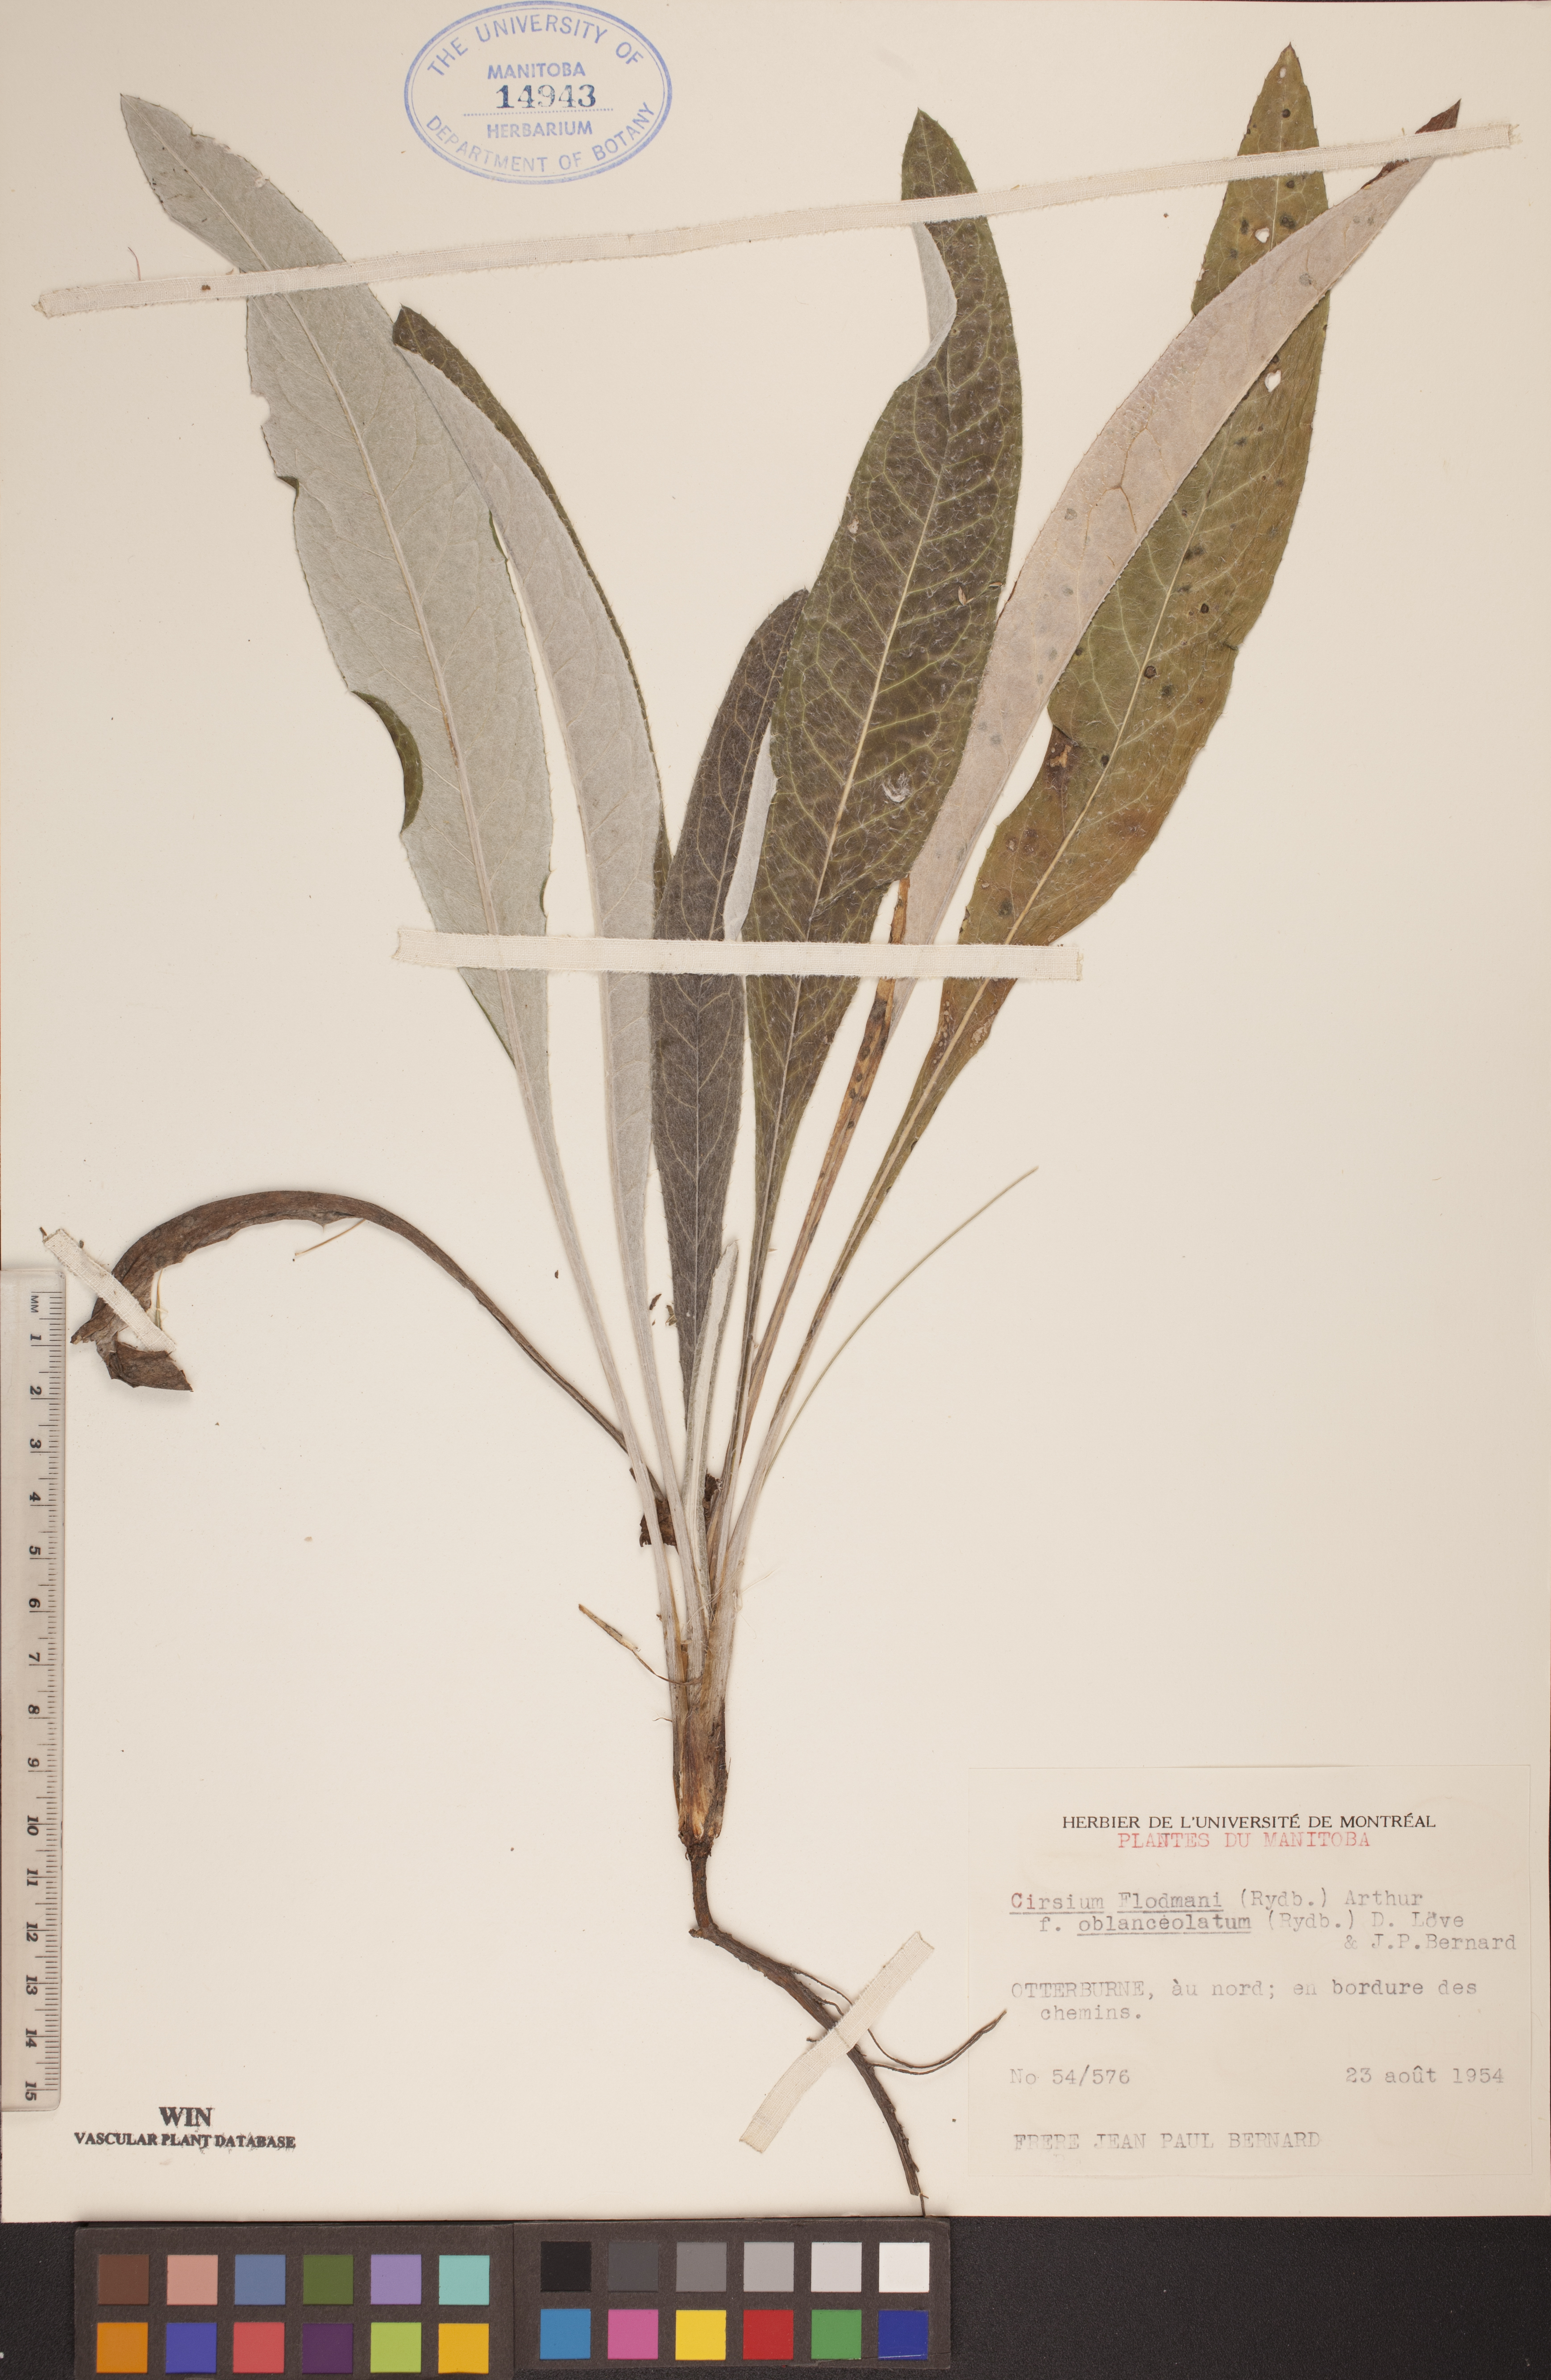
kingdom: Plantae
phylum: Tracheophyta
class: Magnoliopsida
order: Asterales
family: Asteraceae
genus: Cirsium
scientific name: Cirsium flodmanii
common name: Flodman's thistle
